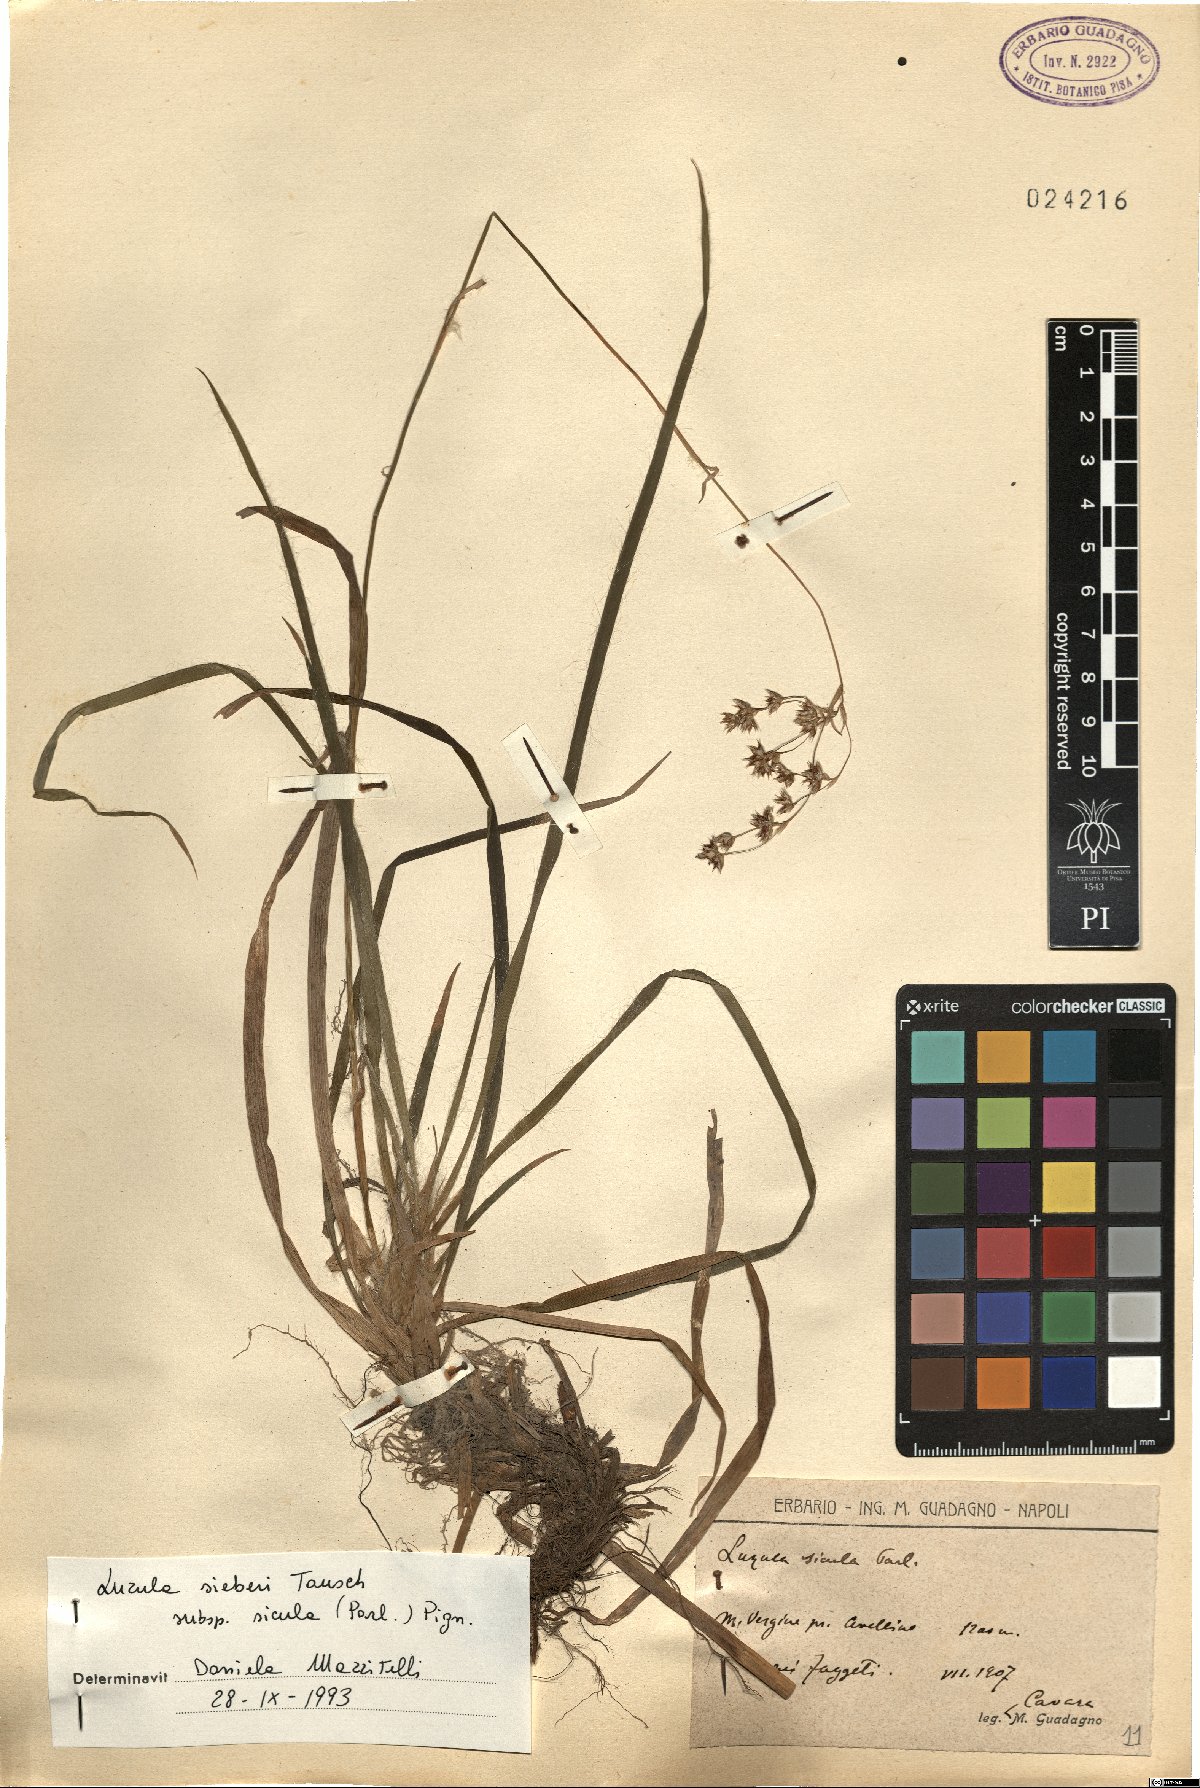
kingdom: Plantae
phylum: Tracheophyta
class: Liliopsida
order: Poales
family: Juncaceae
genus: Luzula
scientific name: Luzula sylvatica
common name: Great wood-rush
